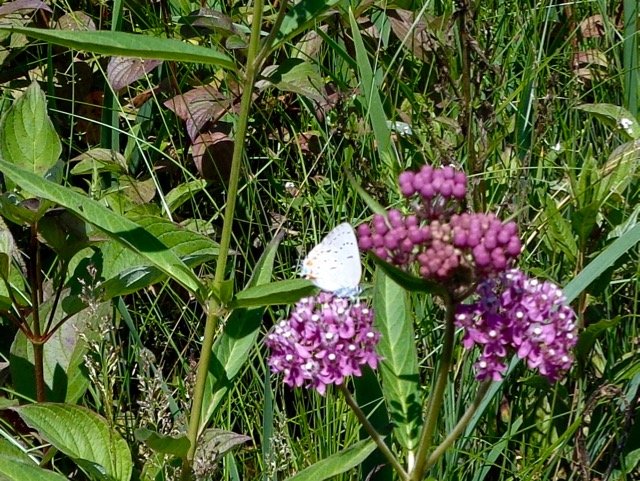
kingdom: Animalia
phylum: Arthropoda
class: Insecta
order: Lepidoptera
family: Lycaenidae
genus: Strymon
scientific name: Strymon acadica
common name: Acadian Hairstreak
